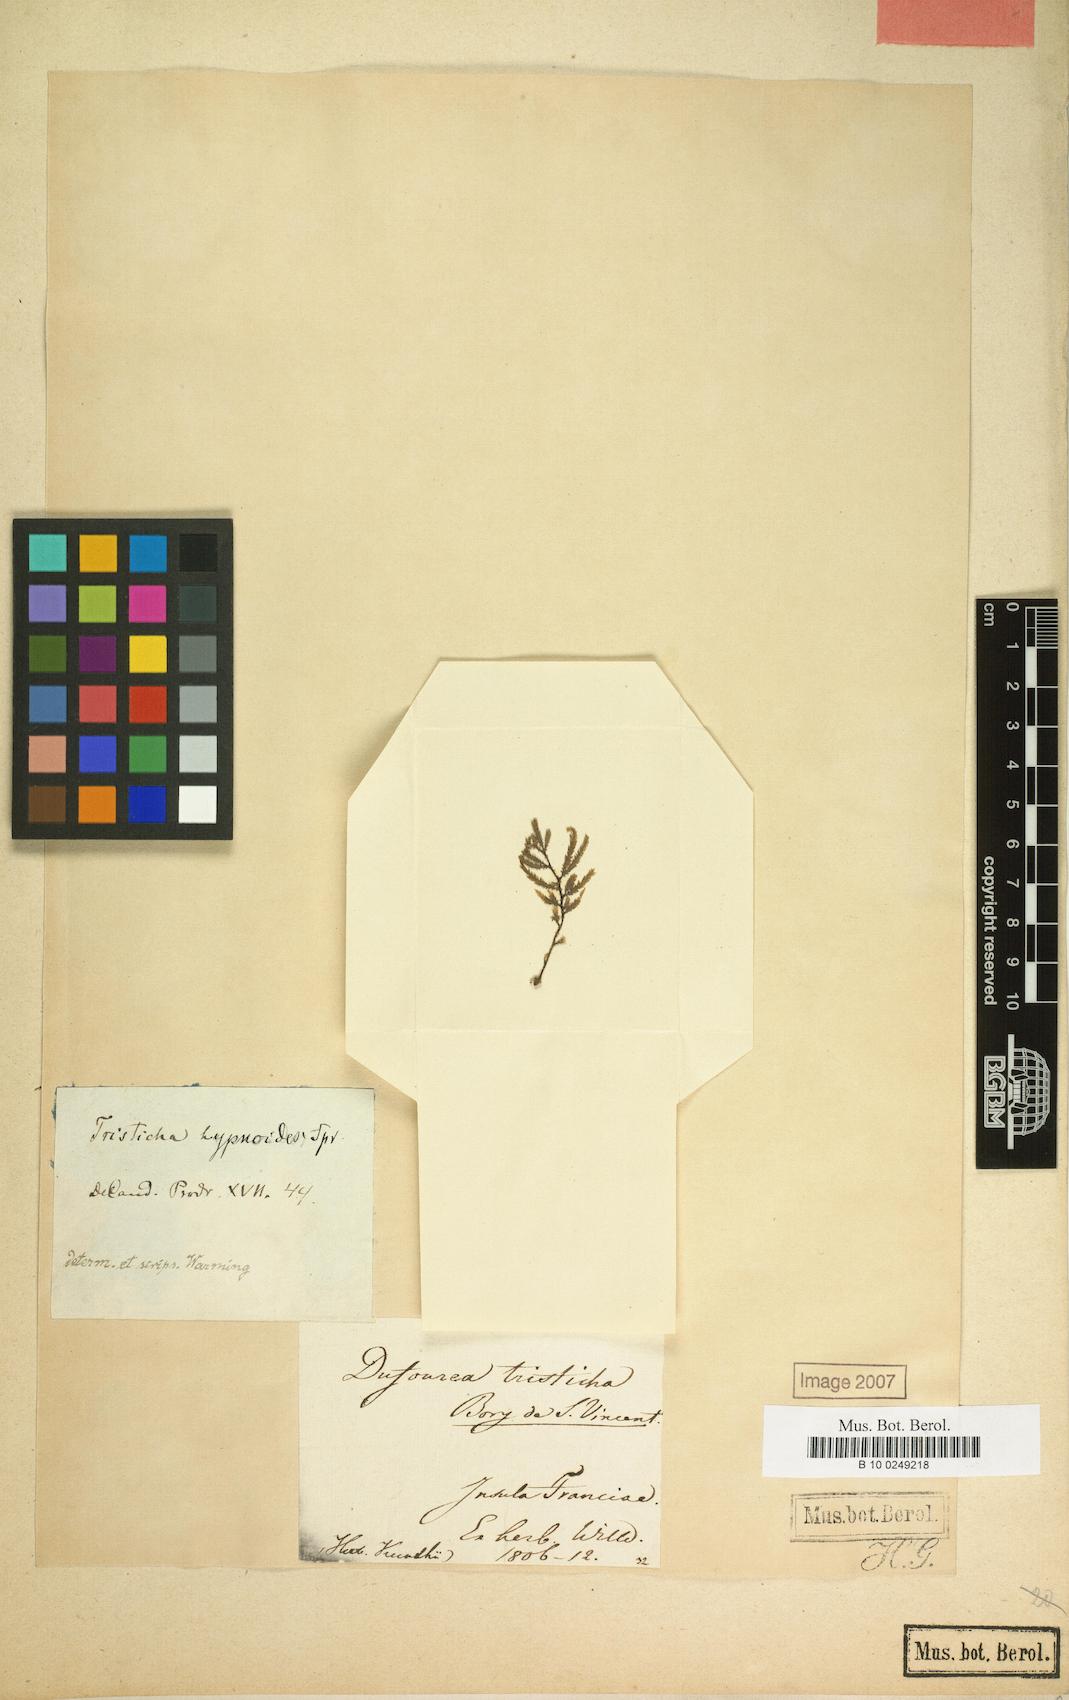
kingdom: Plantae
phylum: Tracheophyta
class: Magnoliopsida
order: Malpighiales
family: Podostemaceae
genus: Tristicha
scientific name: Tristicha trifaria
